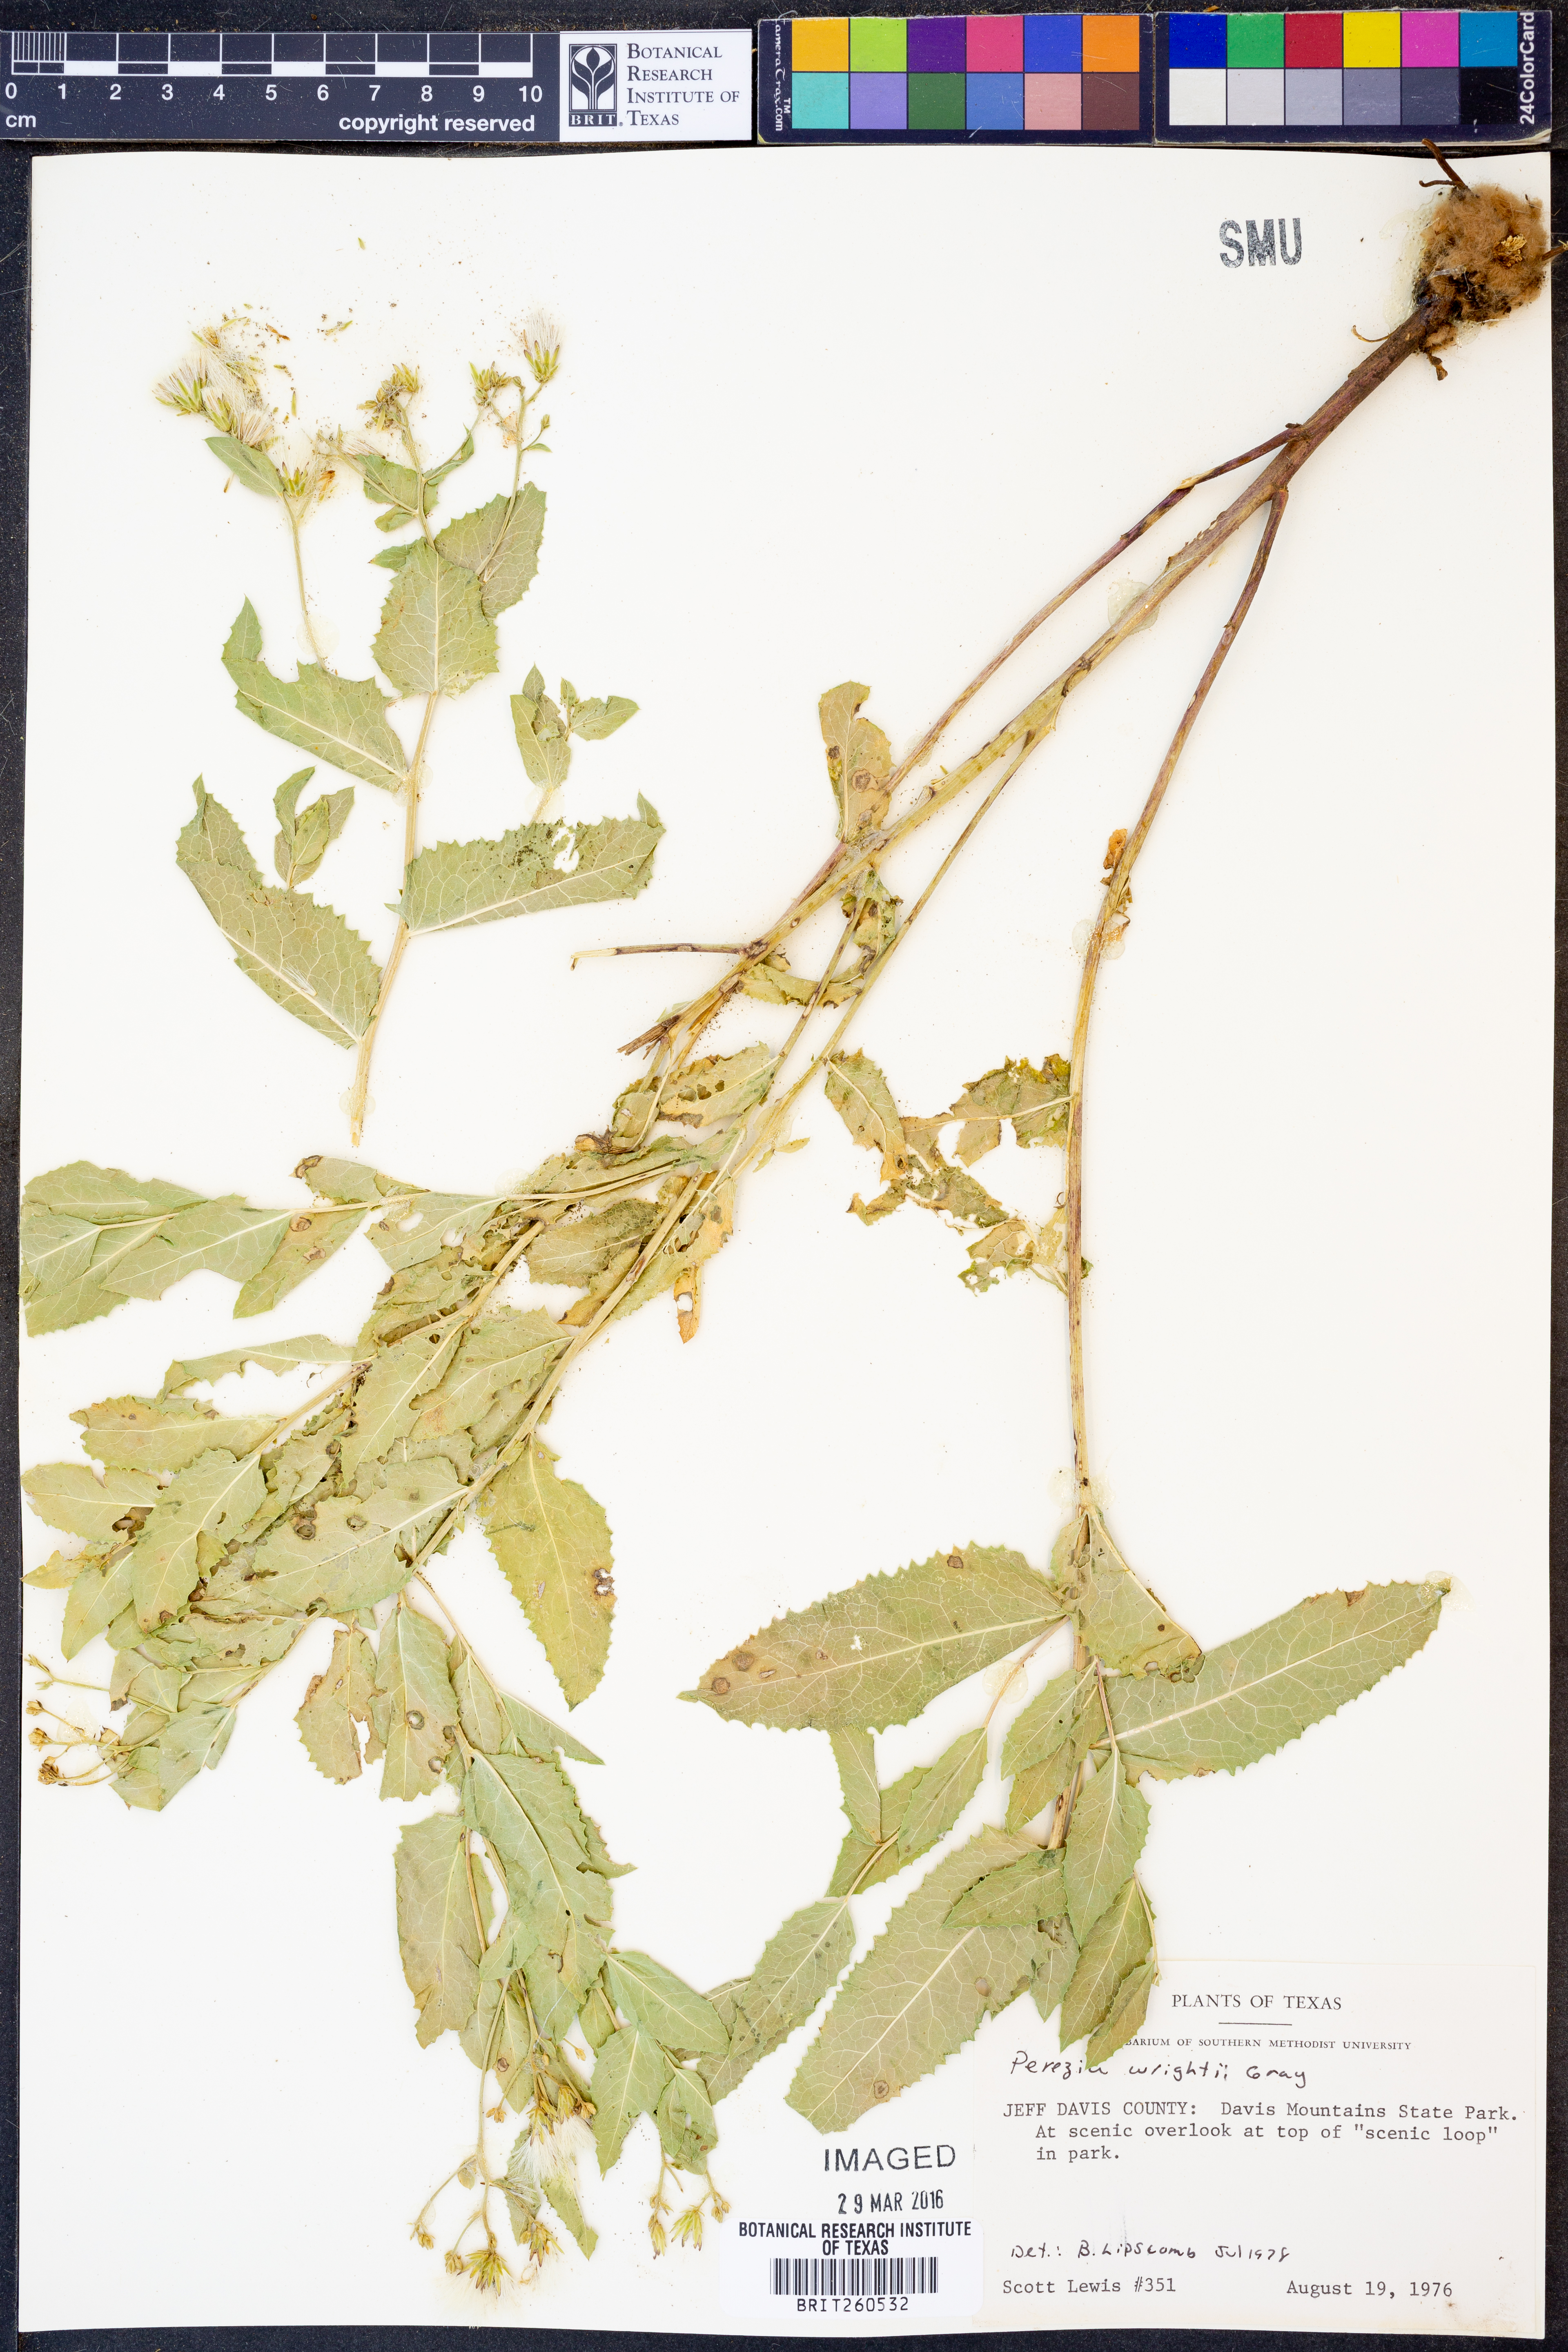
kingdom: Plantae
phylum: Tracheophyta
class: Magnoliopsida
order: Asterales
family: Asteraceae
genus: Acourtia
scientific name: Acourtia wrightii
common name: Brownfoot
